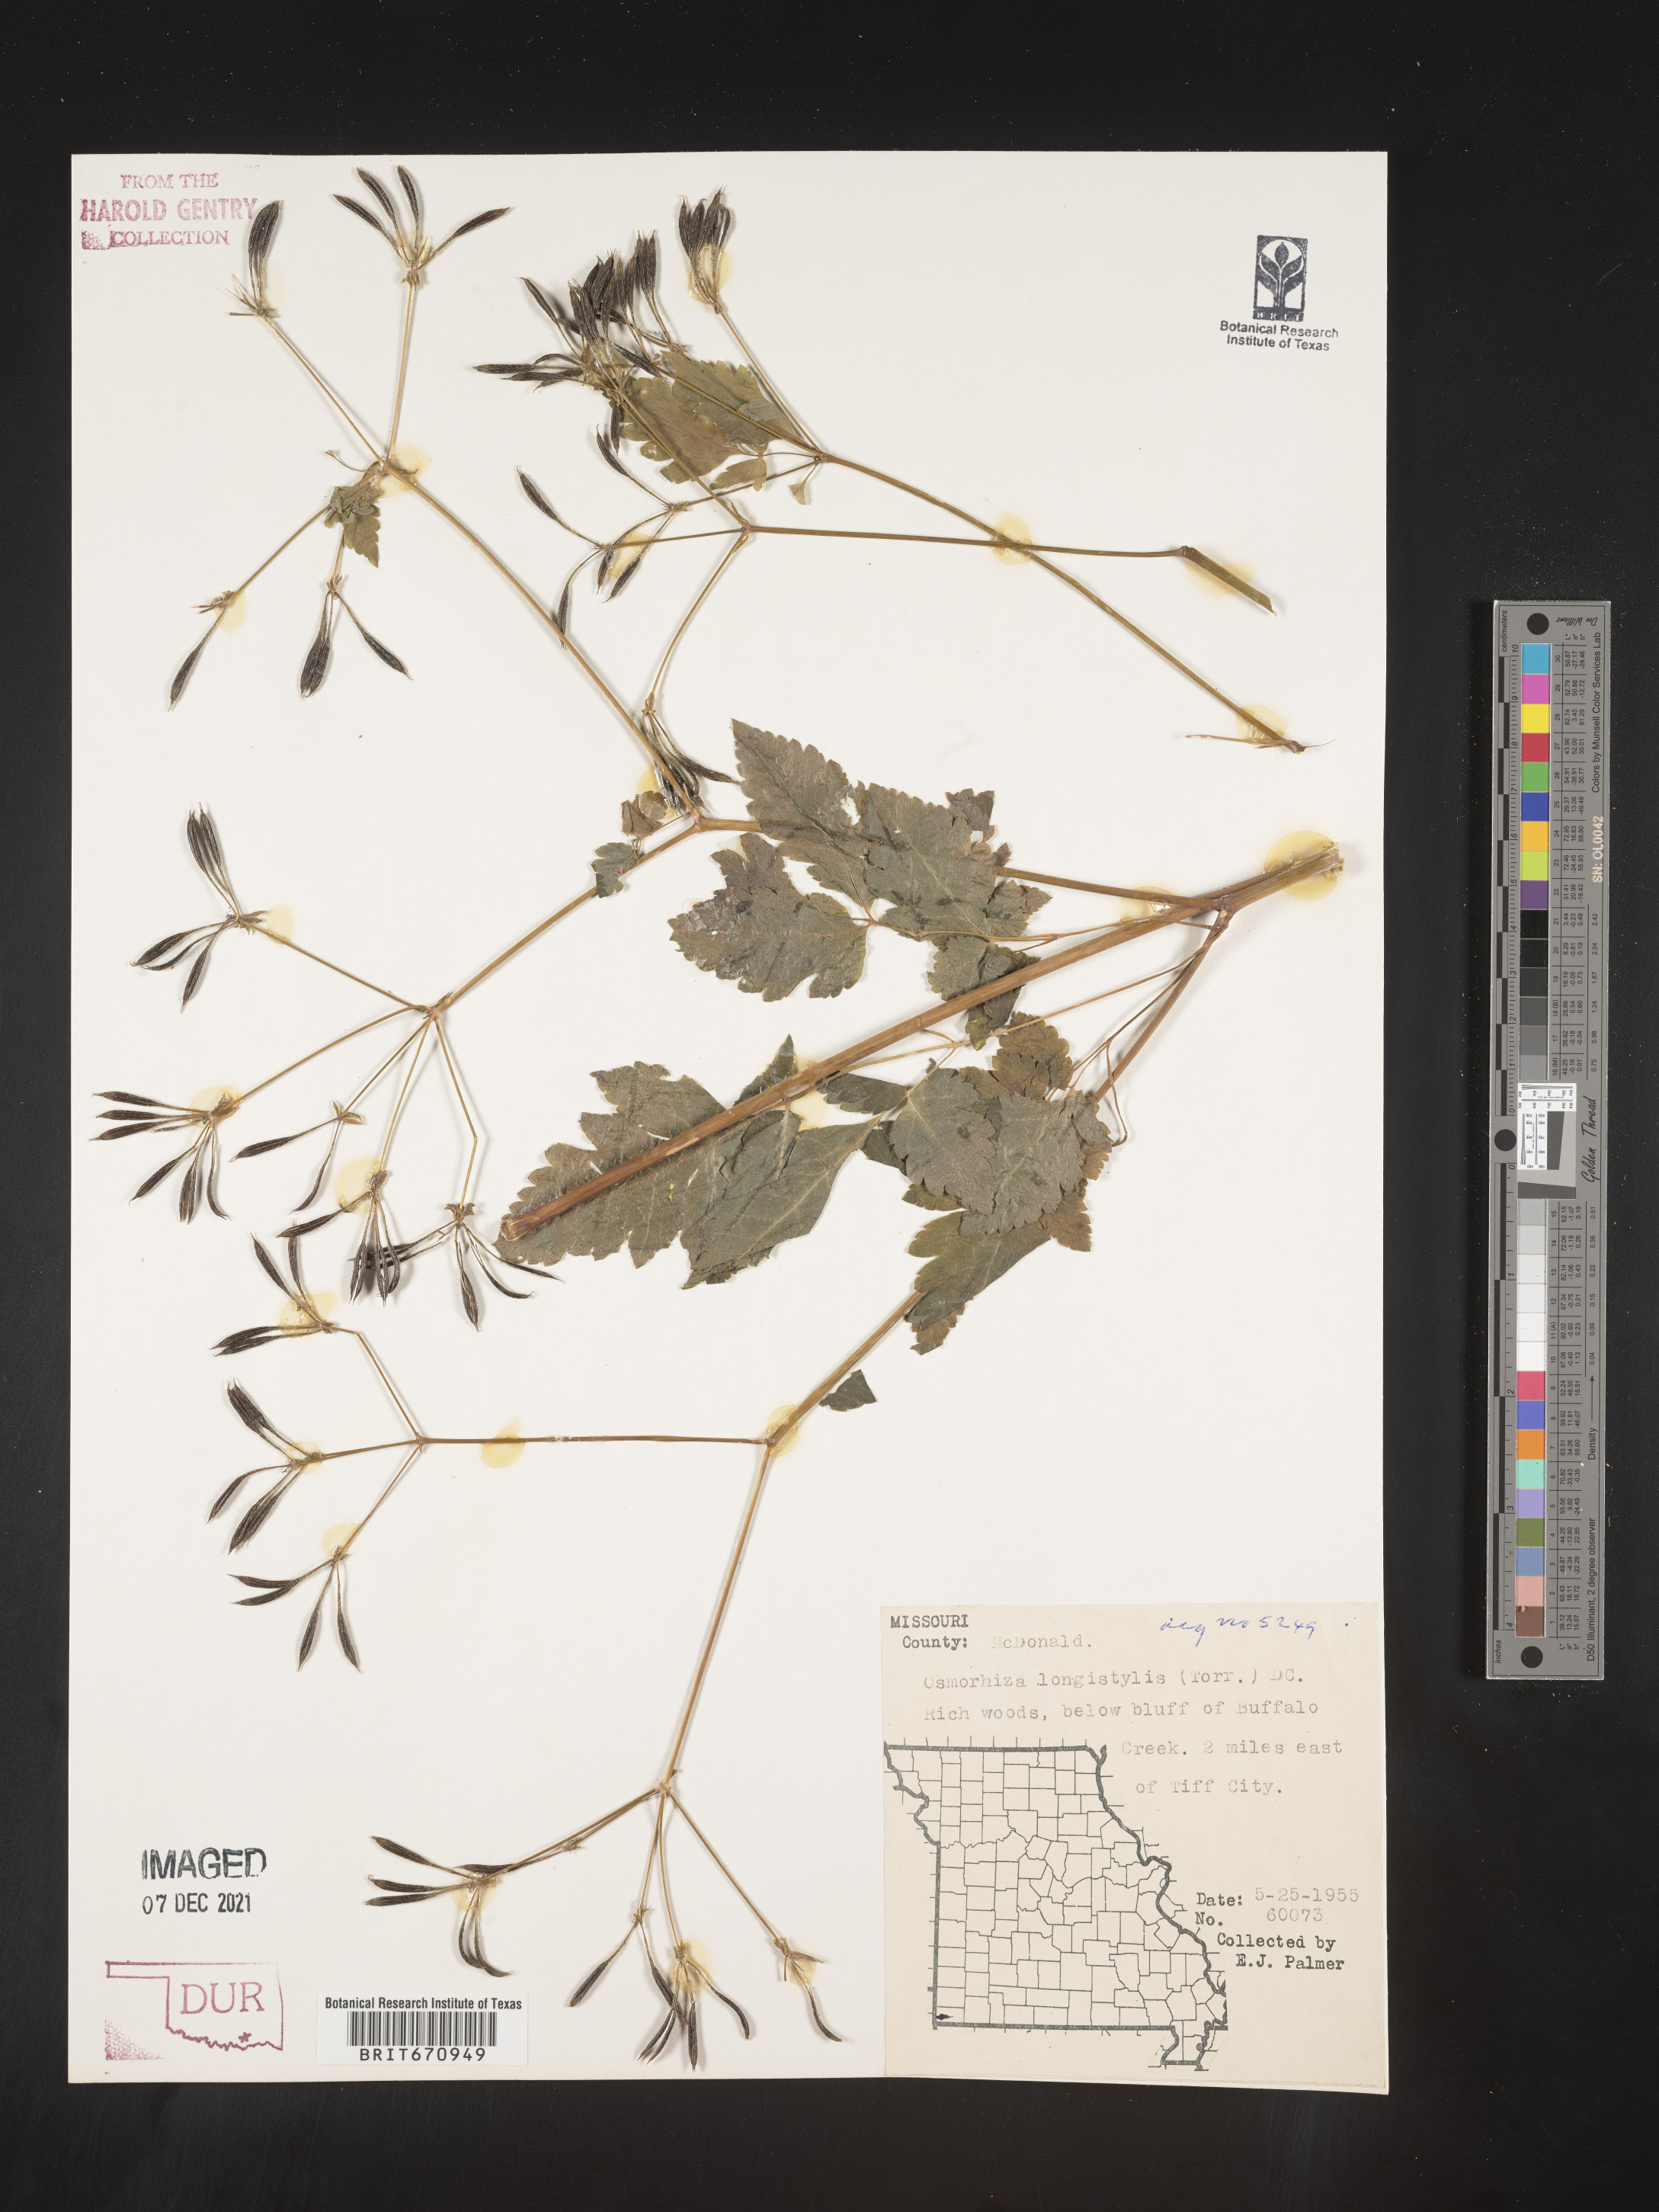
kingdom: Plantae
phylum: Tracheophyta
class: Magnoliopsida
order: Apiales
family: Apiaceae
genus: Osmorhiza
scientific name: Osmorhiza longistylis
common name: Smooth sweet cicely
